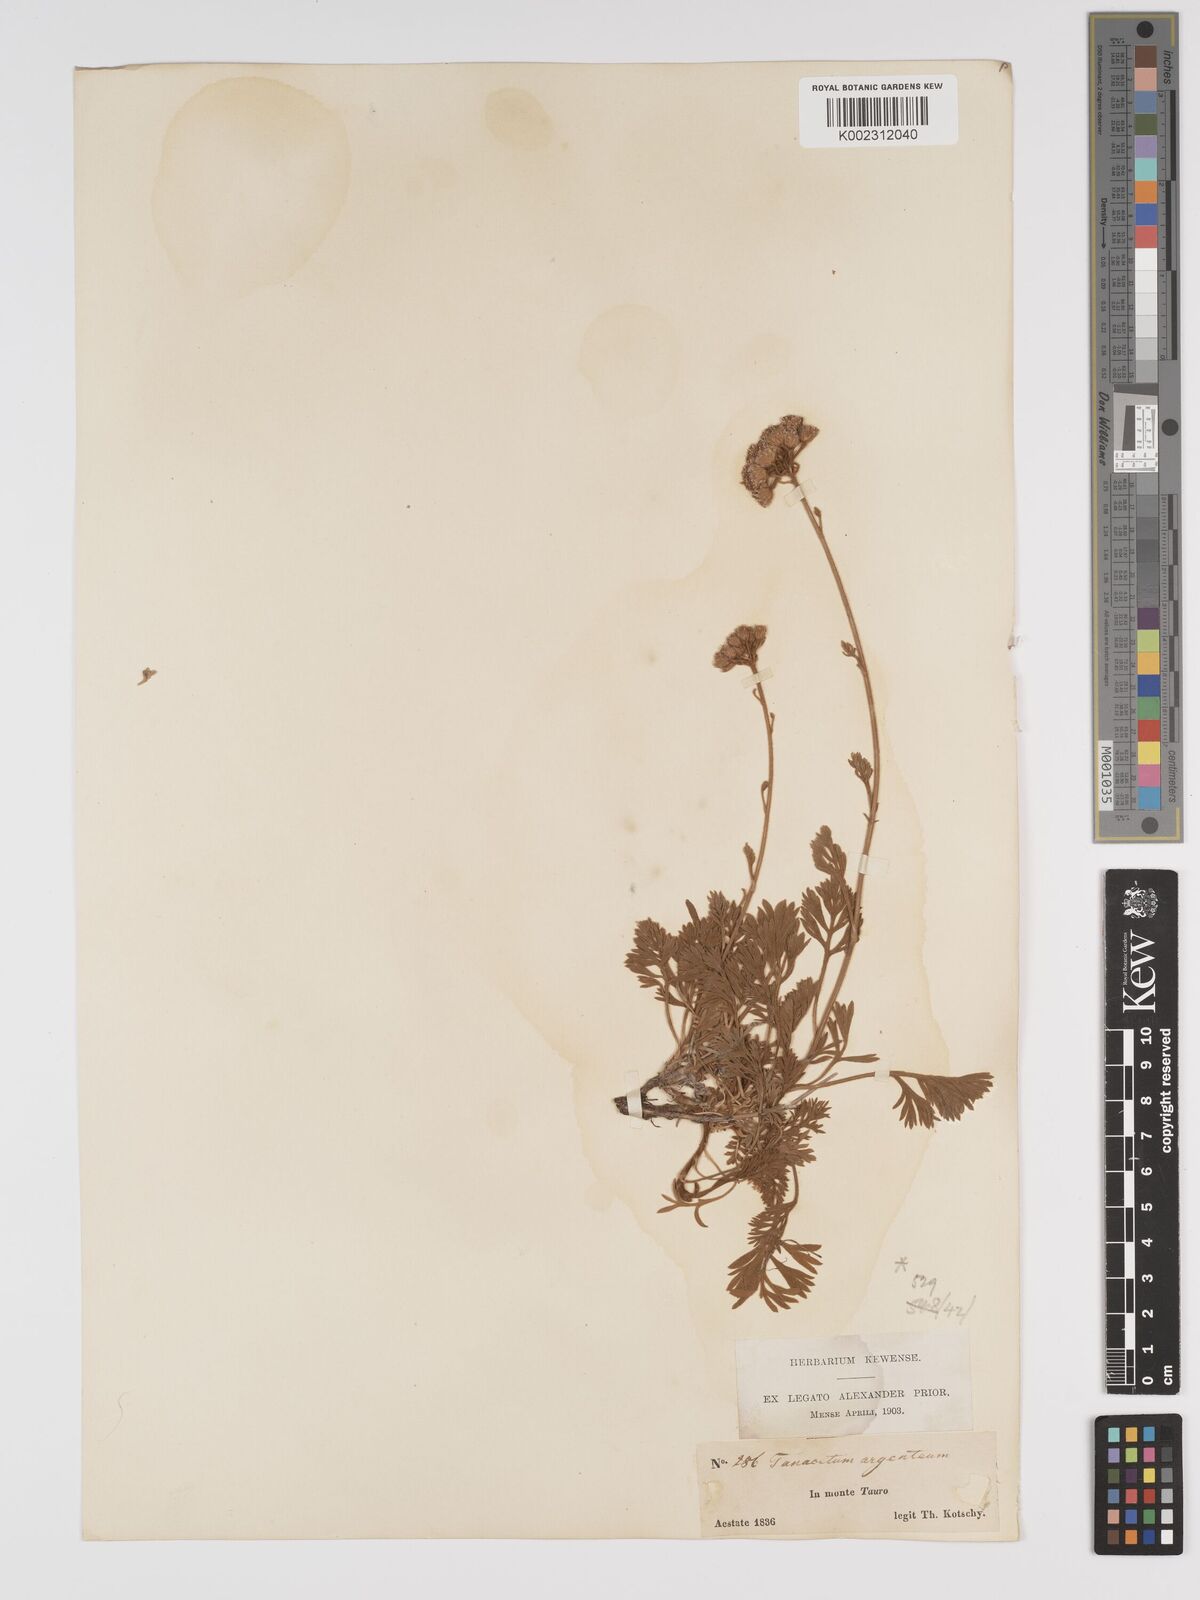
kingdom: Plantae
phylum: Tracheophyta
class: Magnoliopsida
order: Asterales
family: Asteraceae
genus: Tanacetum
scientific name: Tanacetum argenteum
